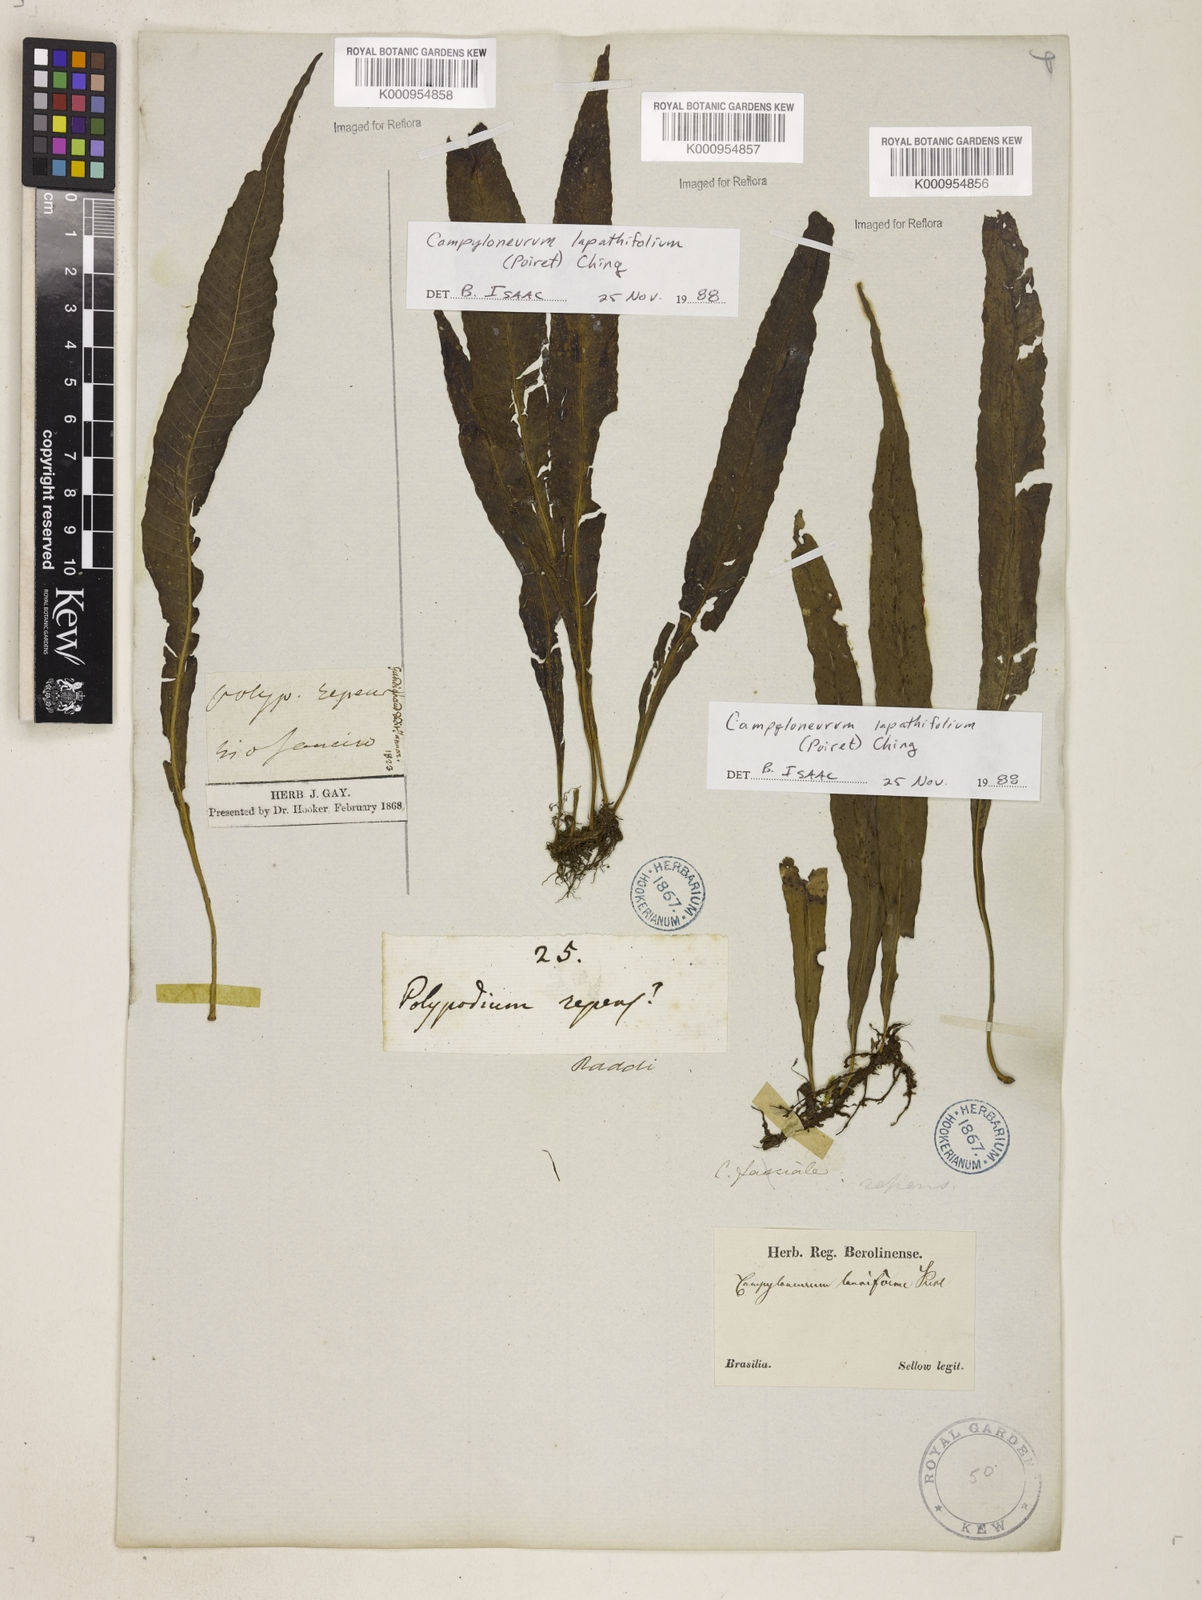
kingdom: Plantae
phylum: Tracheophyta
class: Polypodiopsida
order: Polypodiales
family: Polypodiaceae
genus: Campyloneurum
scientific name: Campyloneurum repens
